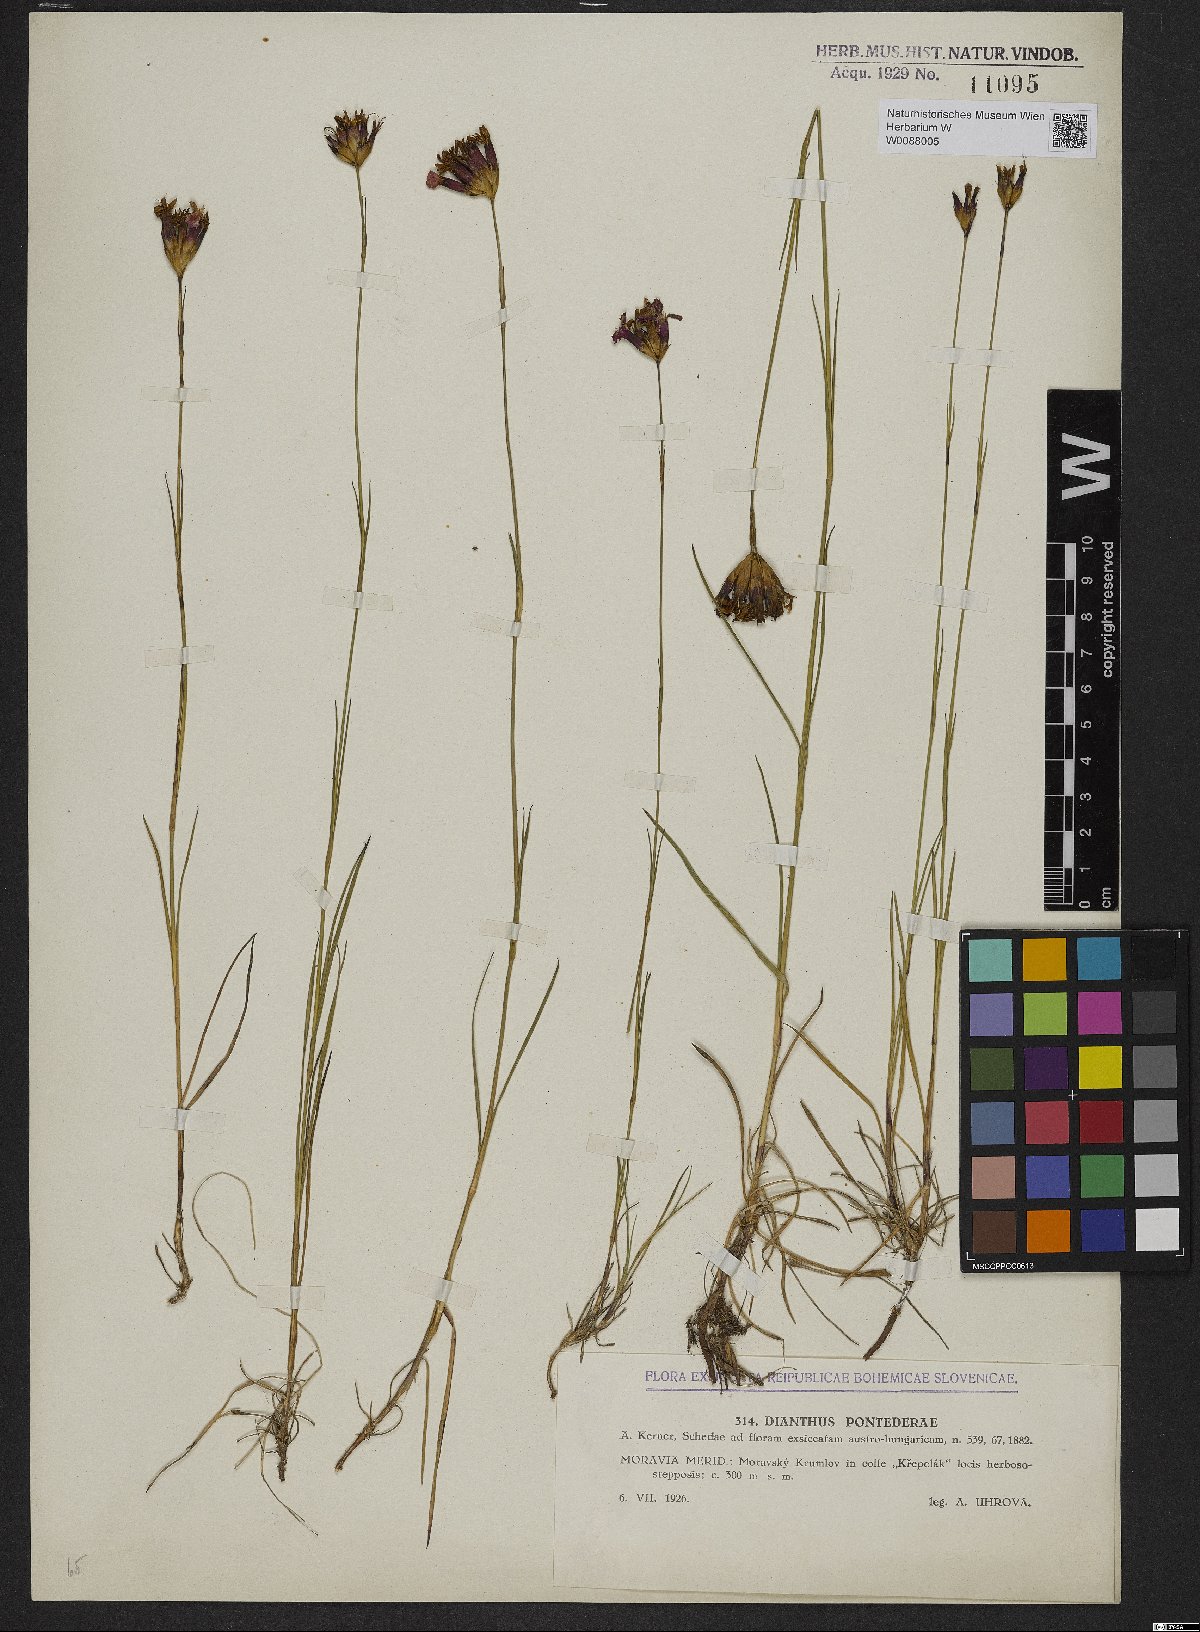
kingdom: Plantae
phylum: Tracheophyta
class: Magnoliopsida
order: Caryophyllales
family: Caryophyllaceae
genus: Dianthus
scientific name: Dianthus pontederae
